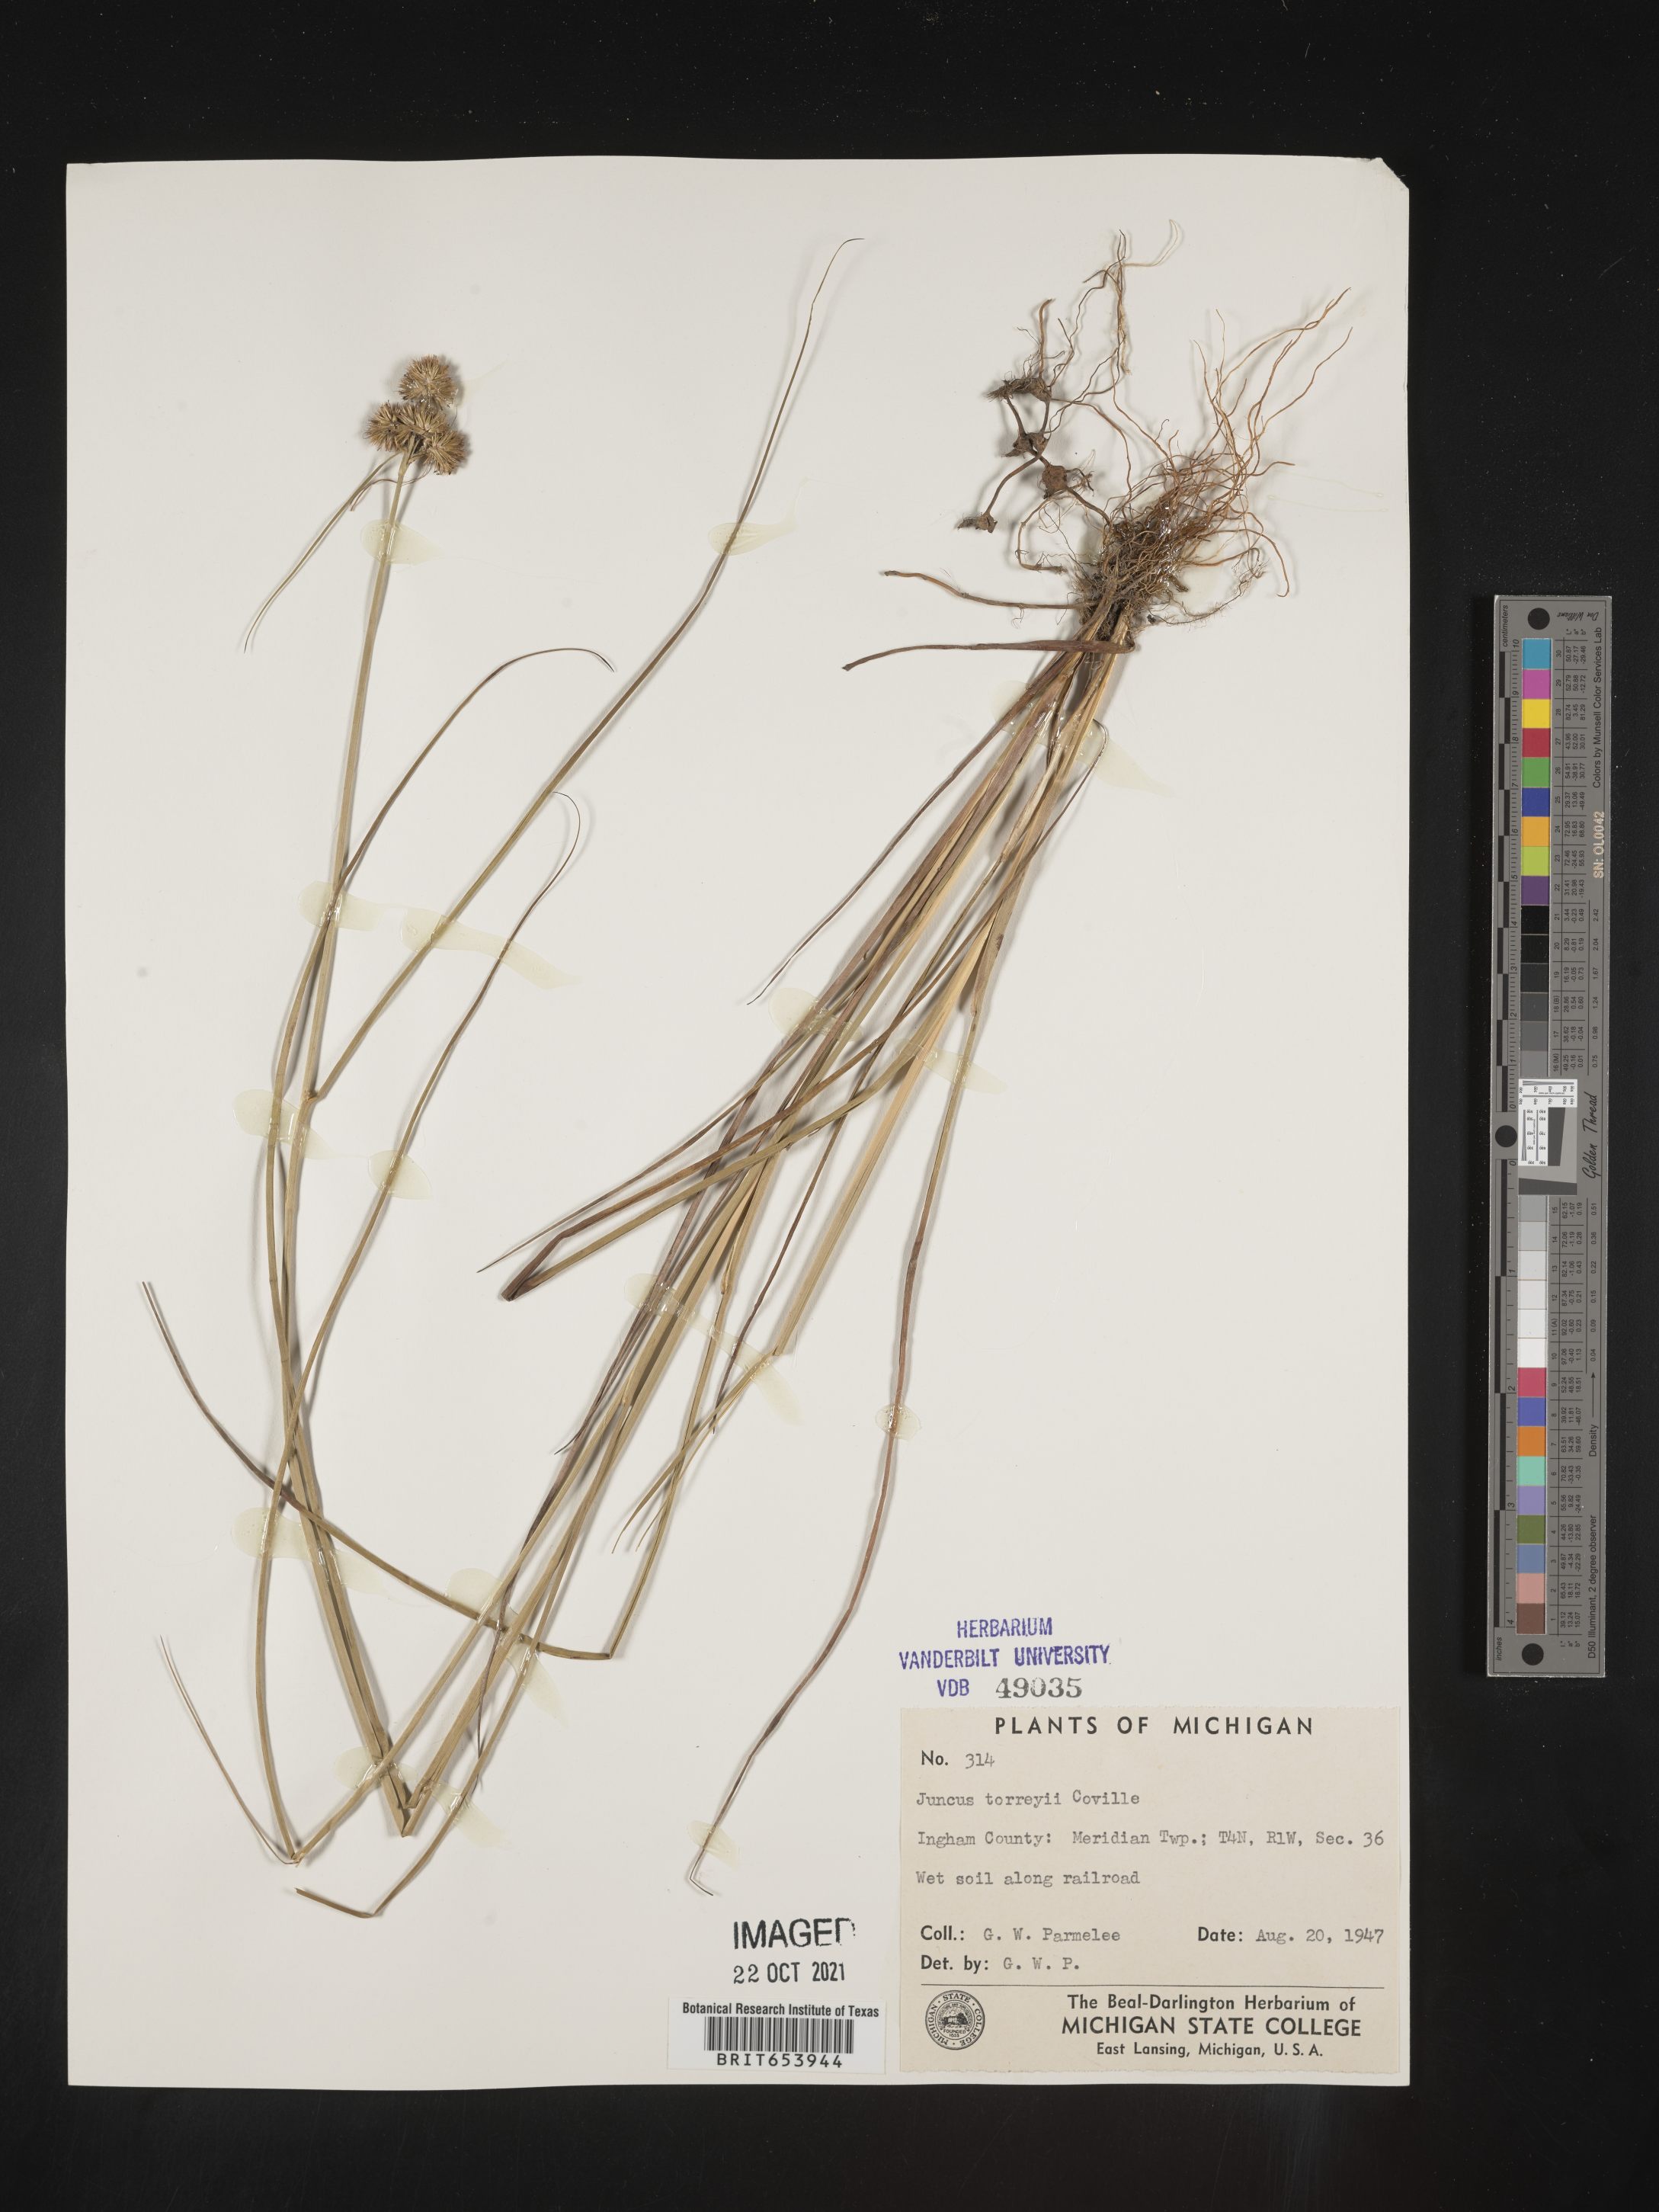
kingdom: Plantae
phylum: Tracheophyta
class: Liliopsida
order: Poales
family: Juncaceae
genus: Juncus
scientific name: Juncus torreyi
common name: Torrey's rush
